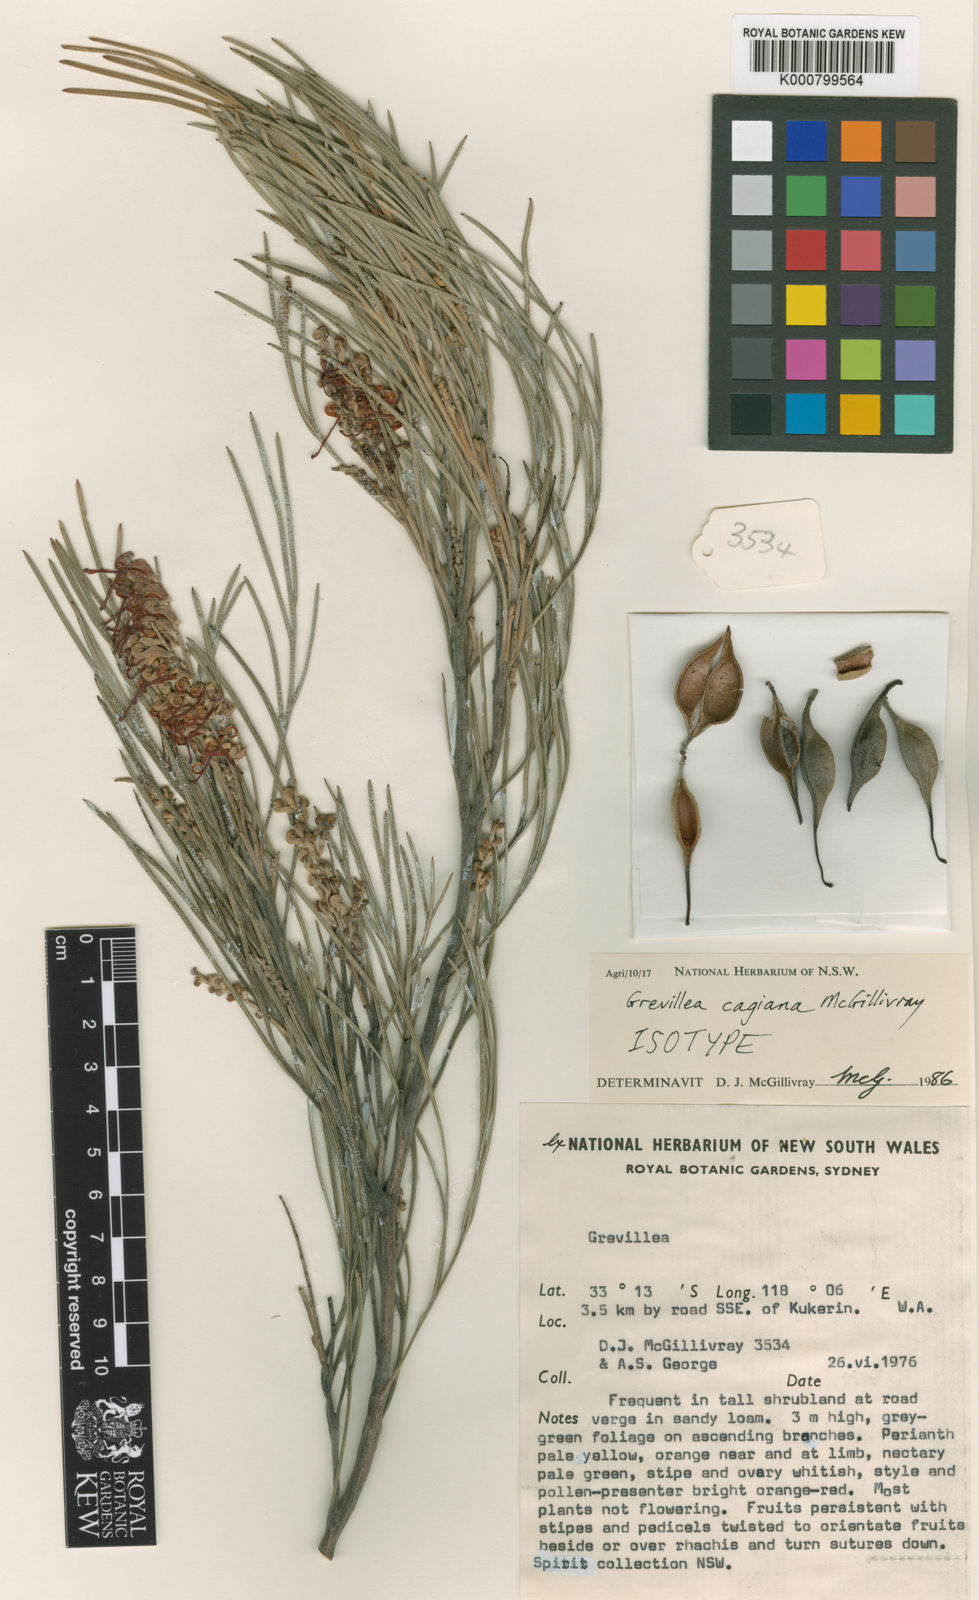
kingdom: Plantae
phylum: Tracheophyta
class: Magnoliopsida
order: Proteales
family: Proteaceae
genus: Grevillea
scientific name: Grevillea cagiana
